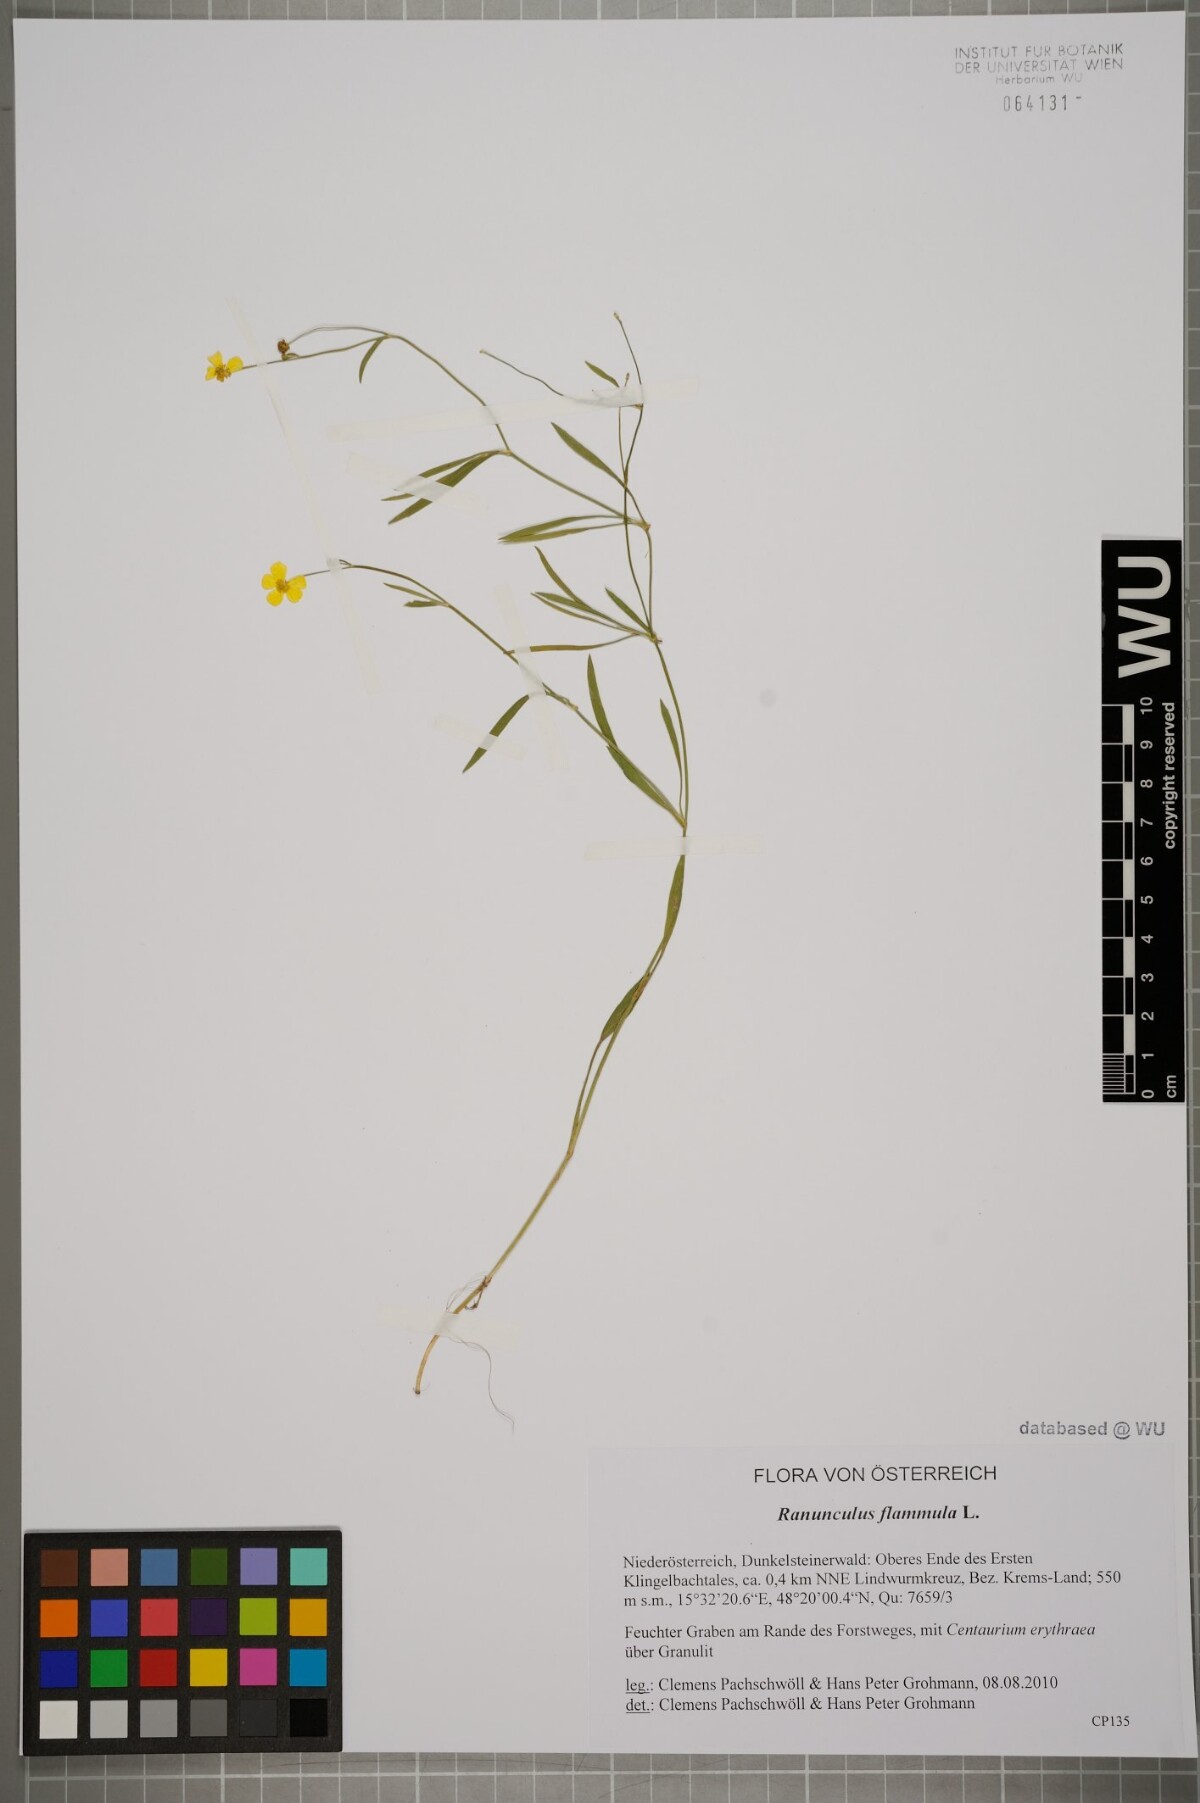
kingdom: Plantae
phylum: Tracheophyta
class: Magnoliopsida
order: Ranunculales
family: Ranunculaceae
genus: Ranunculus
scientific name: Ranunculus flammula
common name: Lesser spearwort
